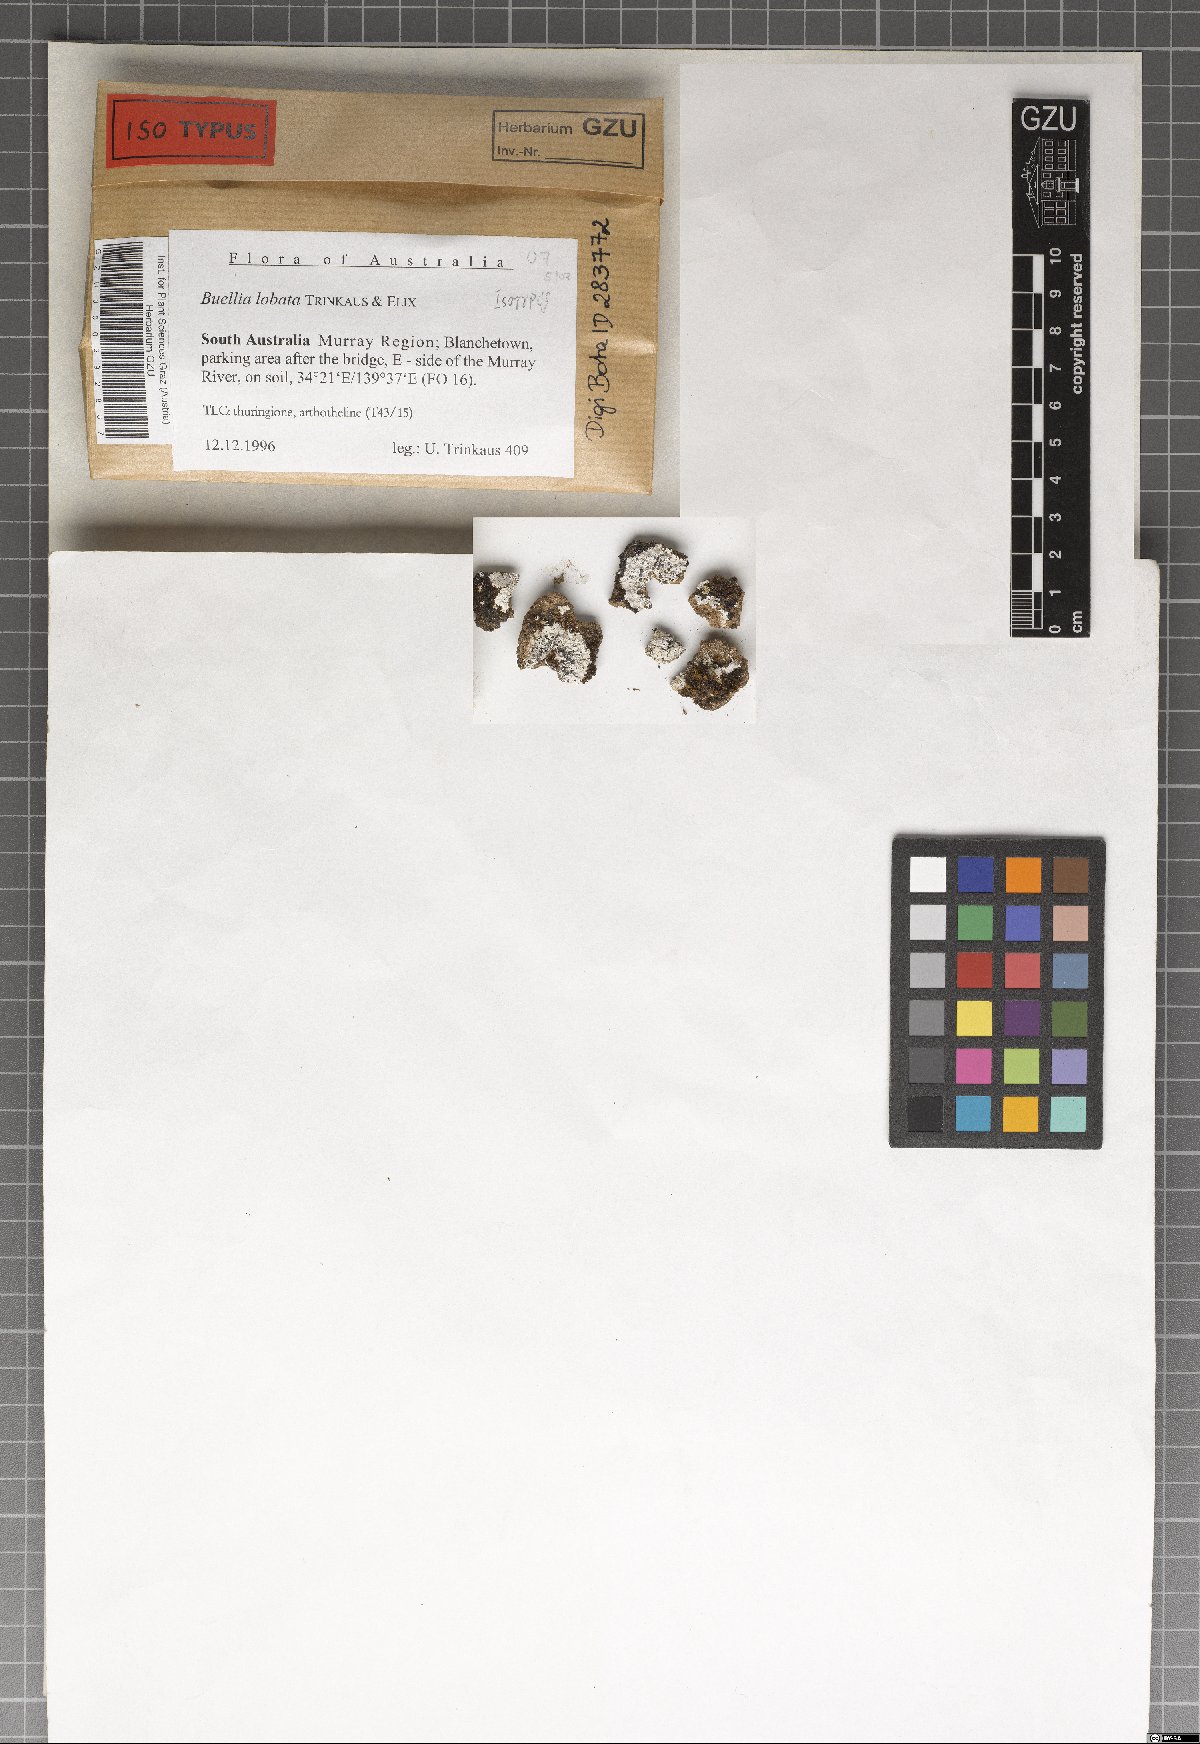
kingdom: Fungi
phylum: Ascomycota
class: Lecanoromycetes
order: Caliciales
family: Caliciaceae
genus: Buellia
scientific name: Buellia lobata
